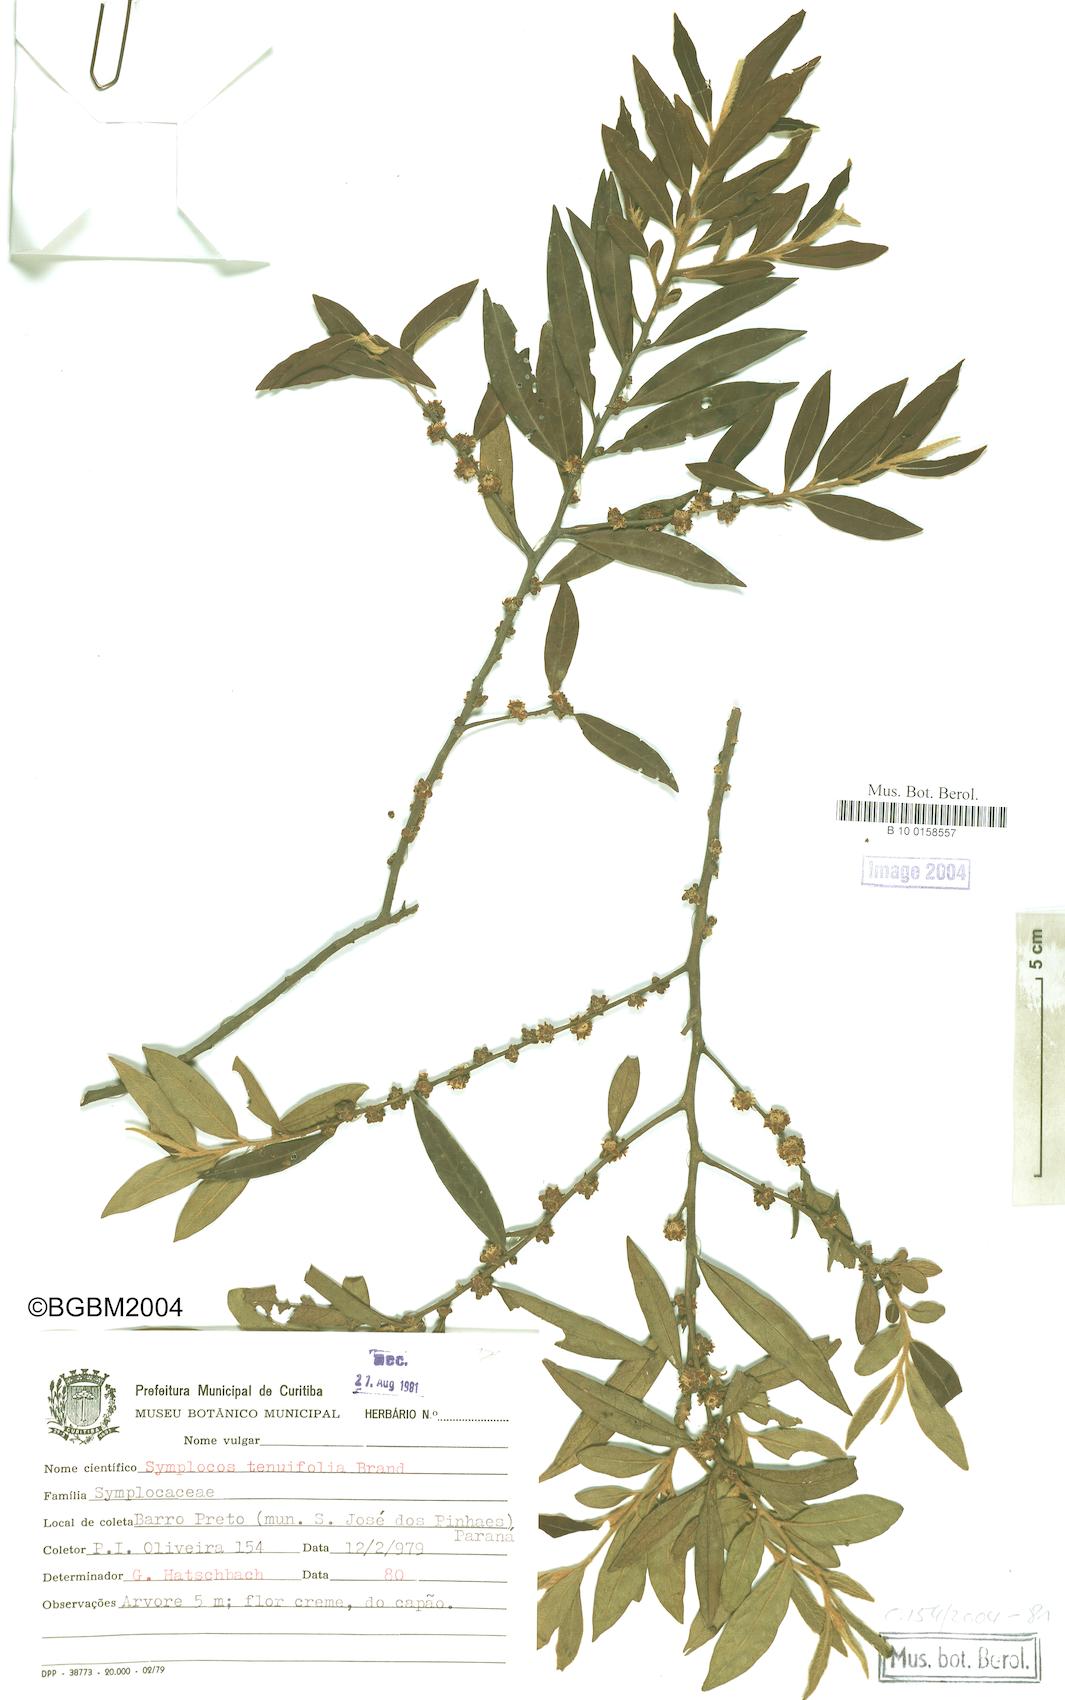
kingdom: Plantae
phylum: Tracheophyta
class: Magnoliopsida
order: Ericales
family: Symplocaceae
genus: Symplocos
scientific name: Symplocos tenuifolia
